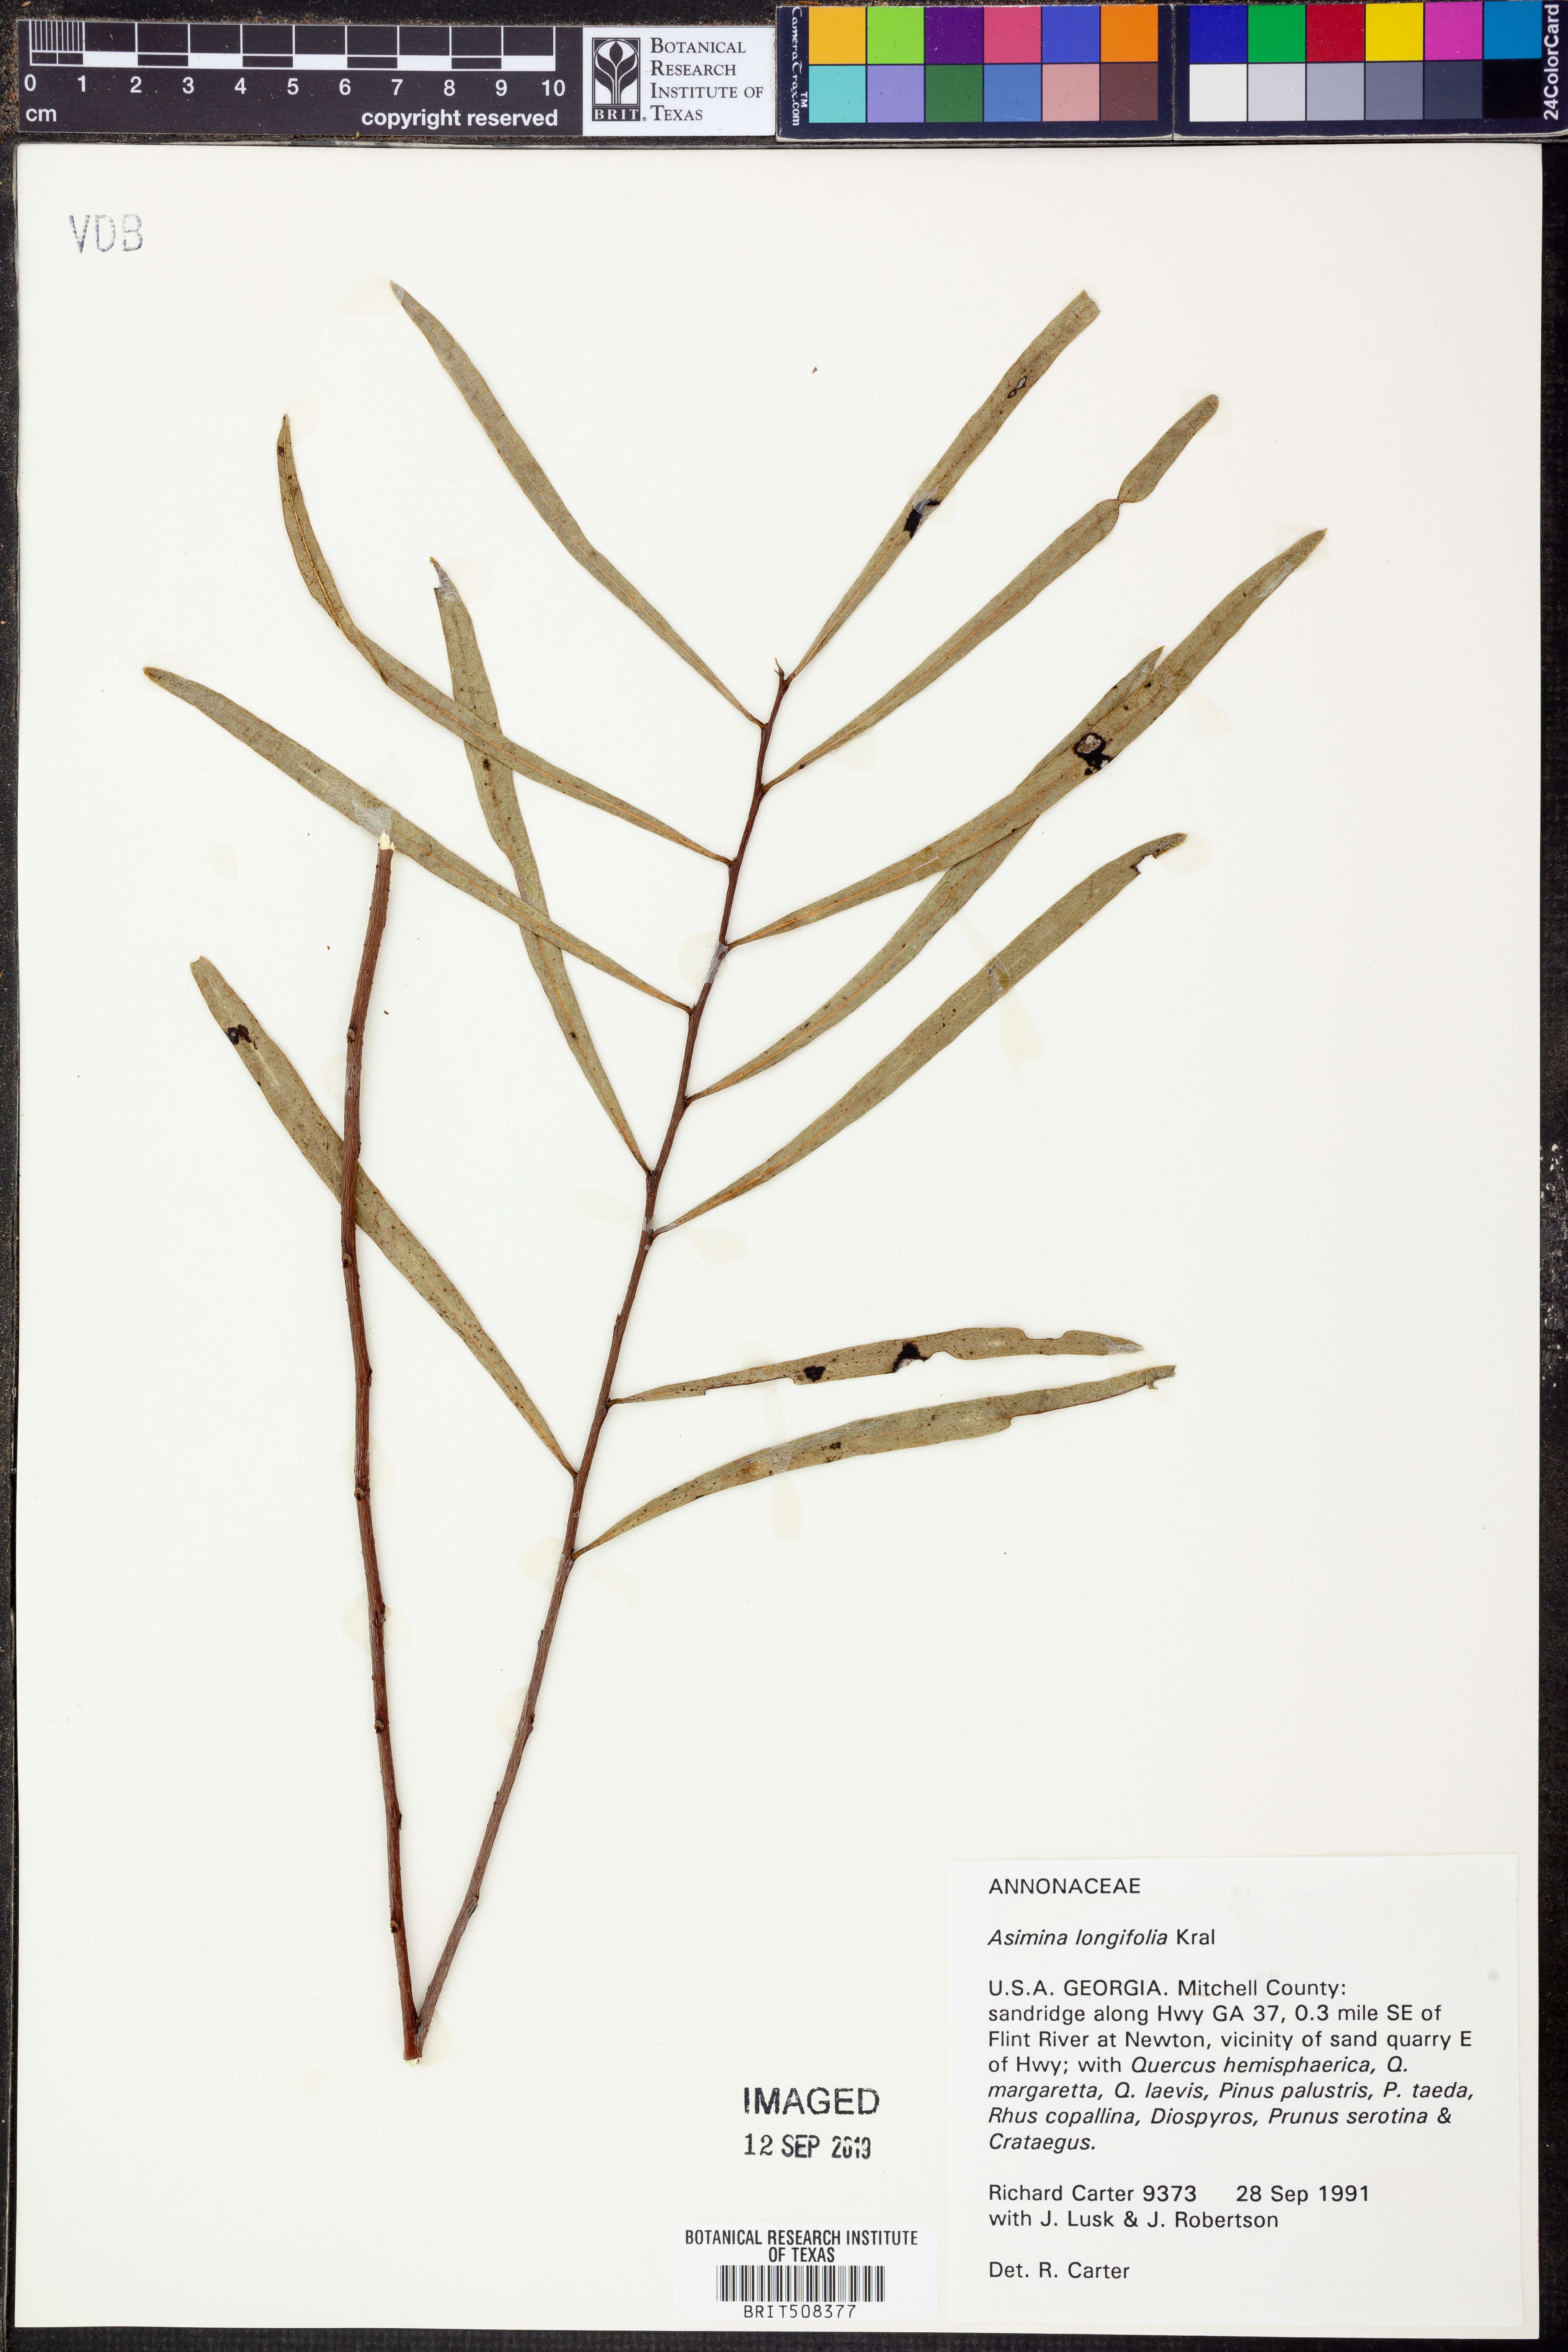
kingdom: Plantae
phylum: Tracheophyta
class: Magnoliopsida
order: Magnoliales
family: Annonaceae
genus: Asimina
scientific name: Asimina longifolia
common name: Polecatbush
